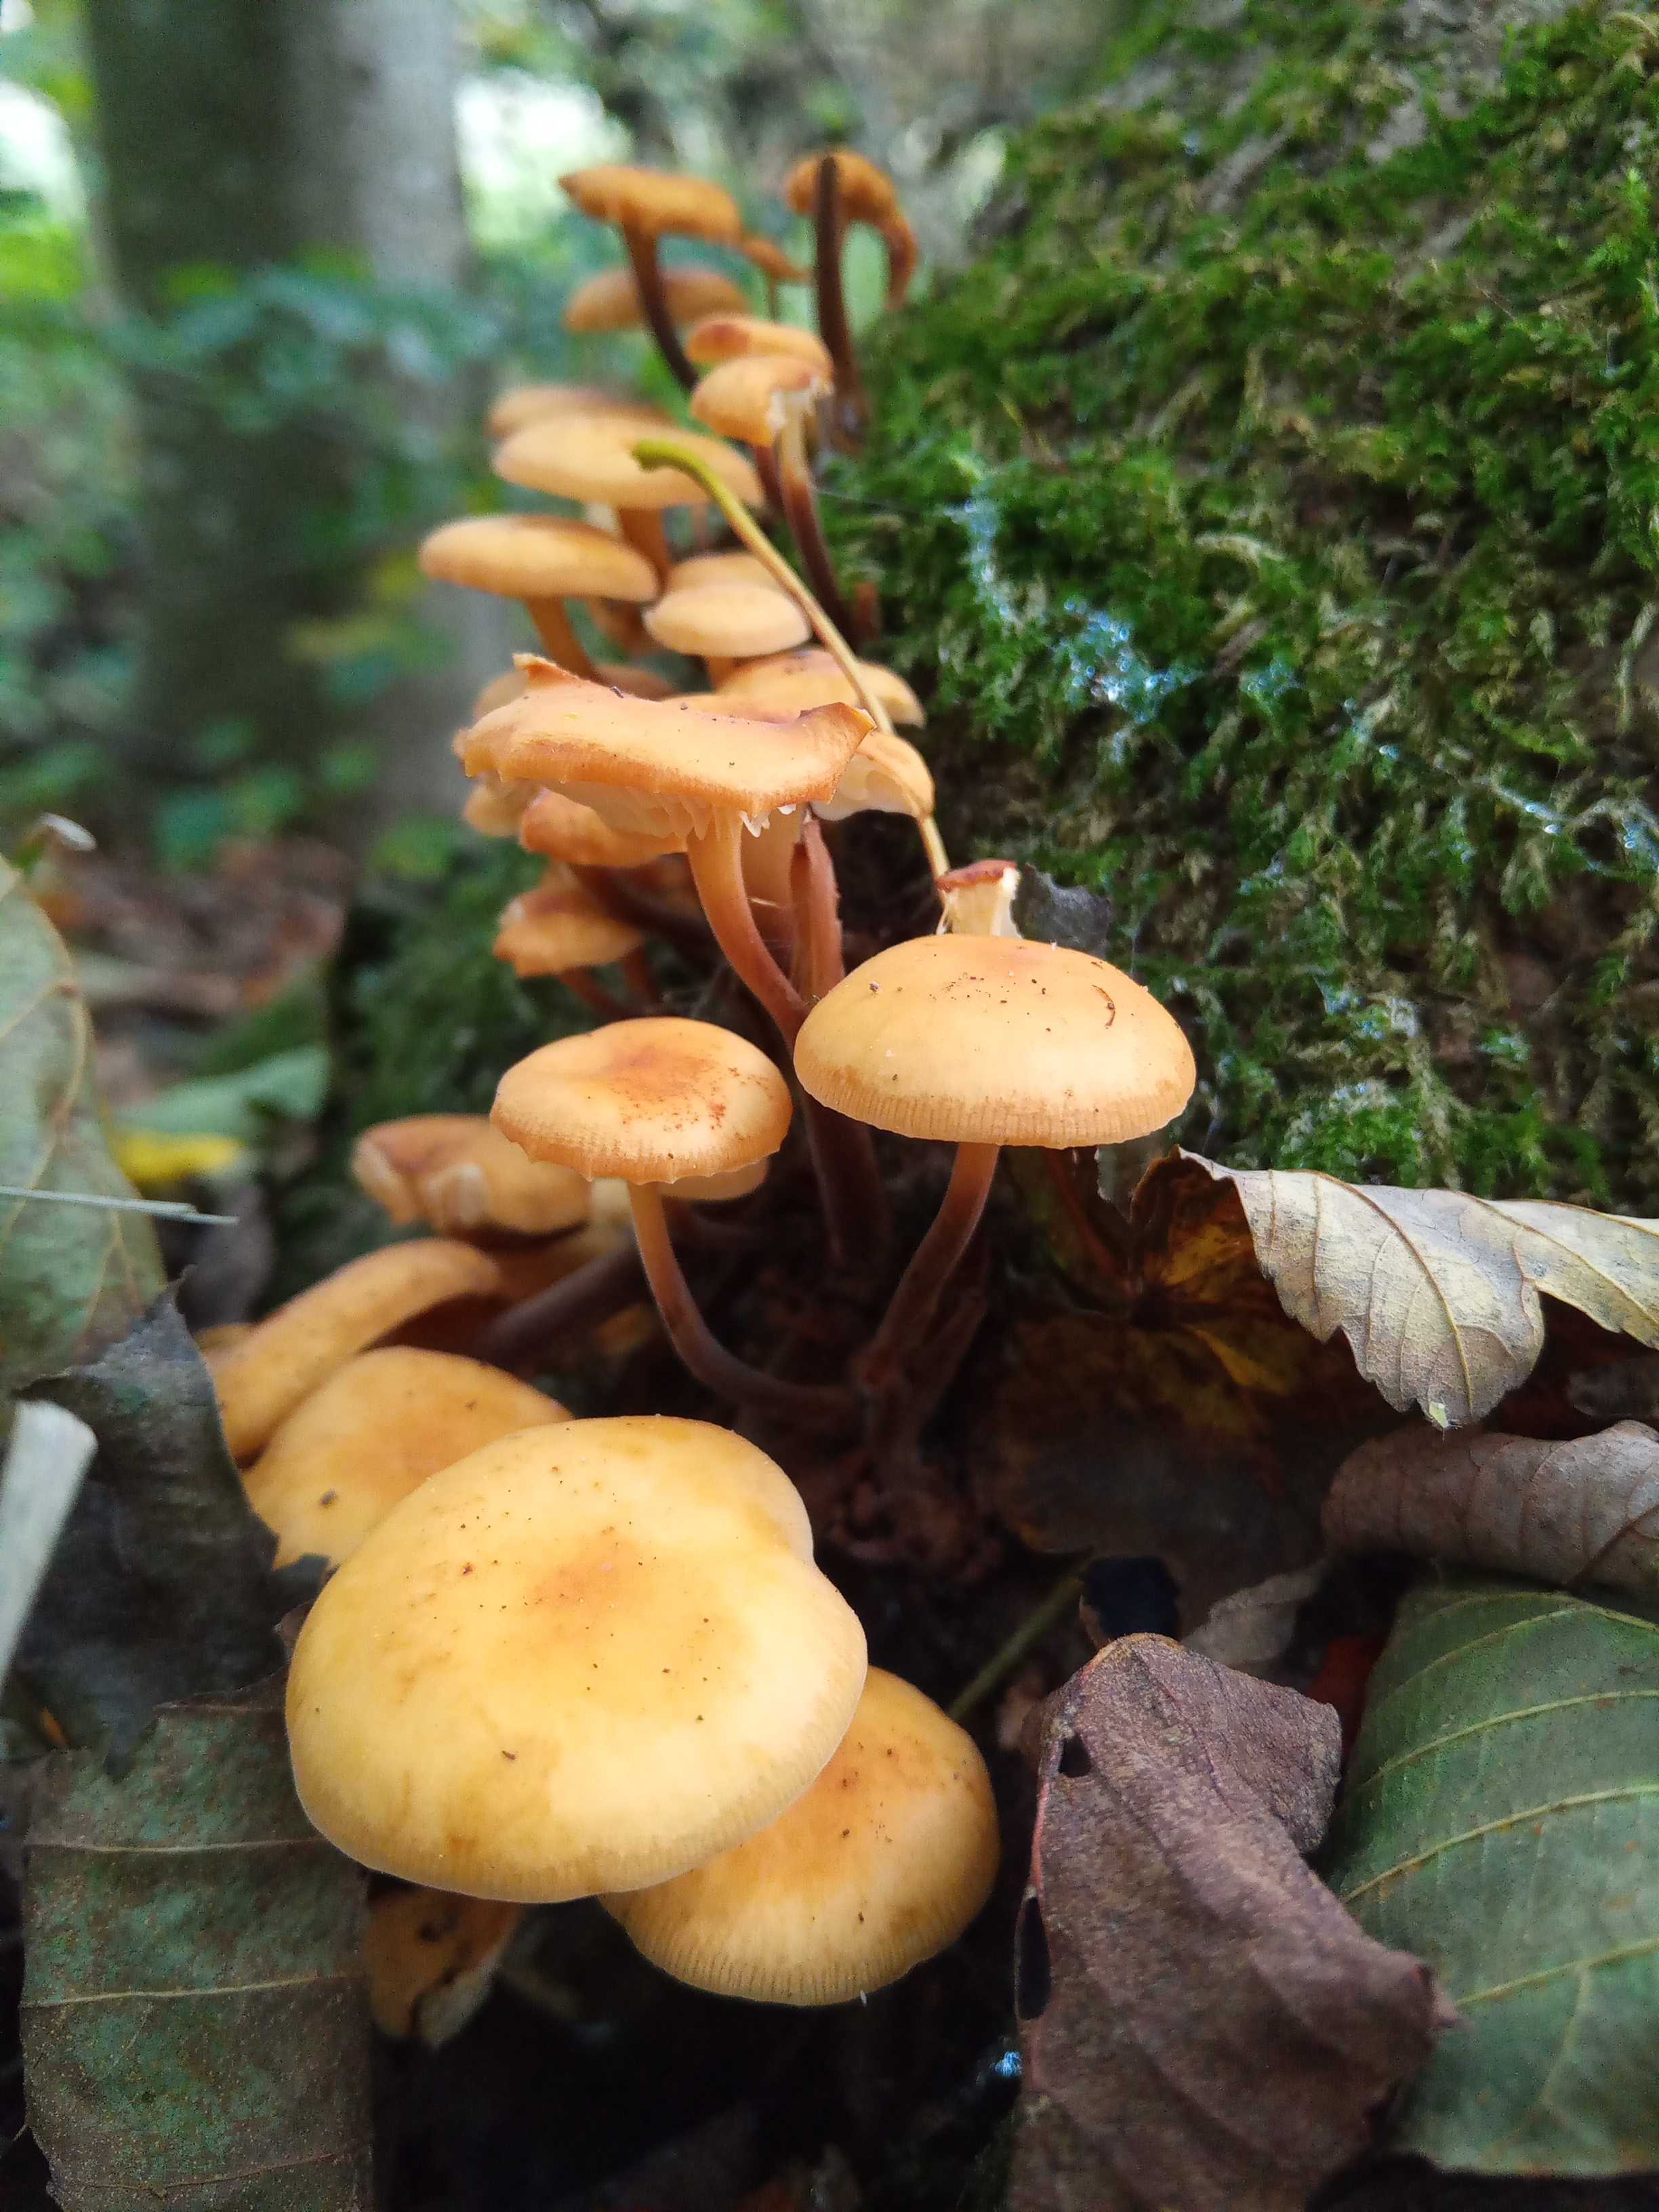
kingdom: Fungi
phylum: Basidiomycota
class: Agaricomycetes
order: Agaricales
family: Physalacriaceae
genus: Flammulina
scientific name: Flammulina velutipes
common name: gul fløjlsfod
